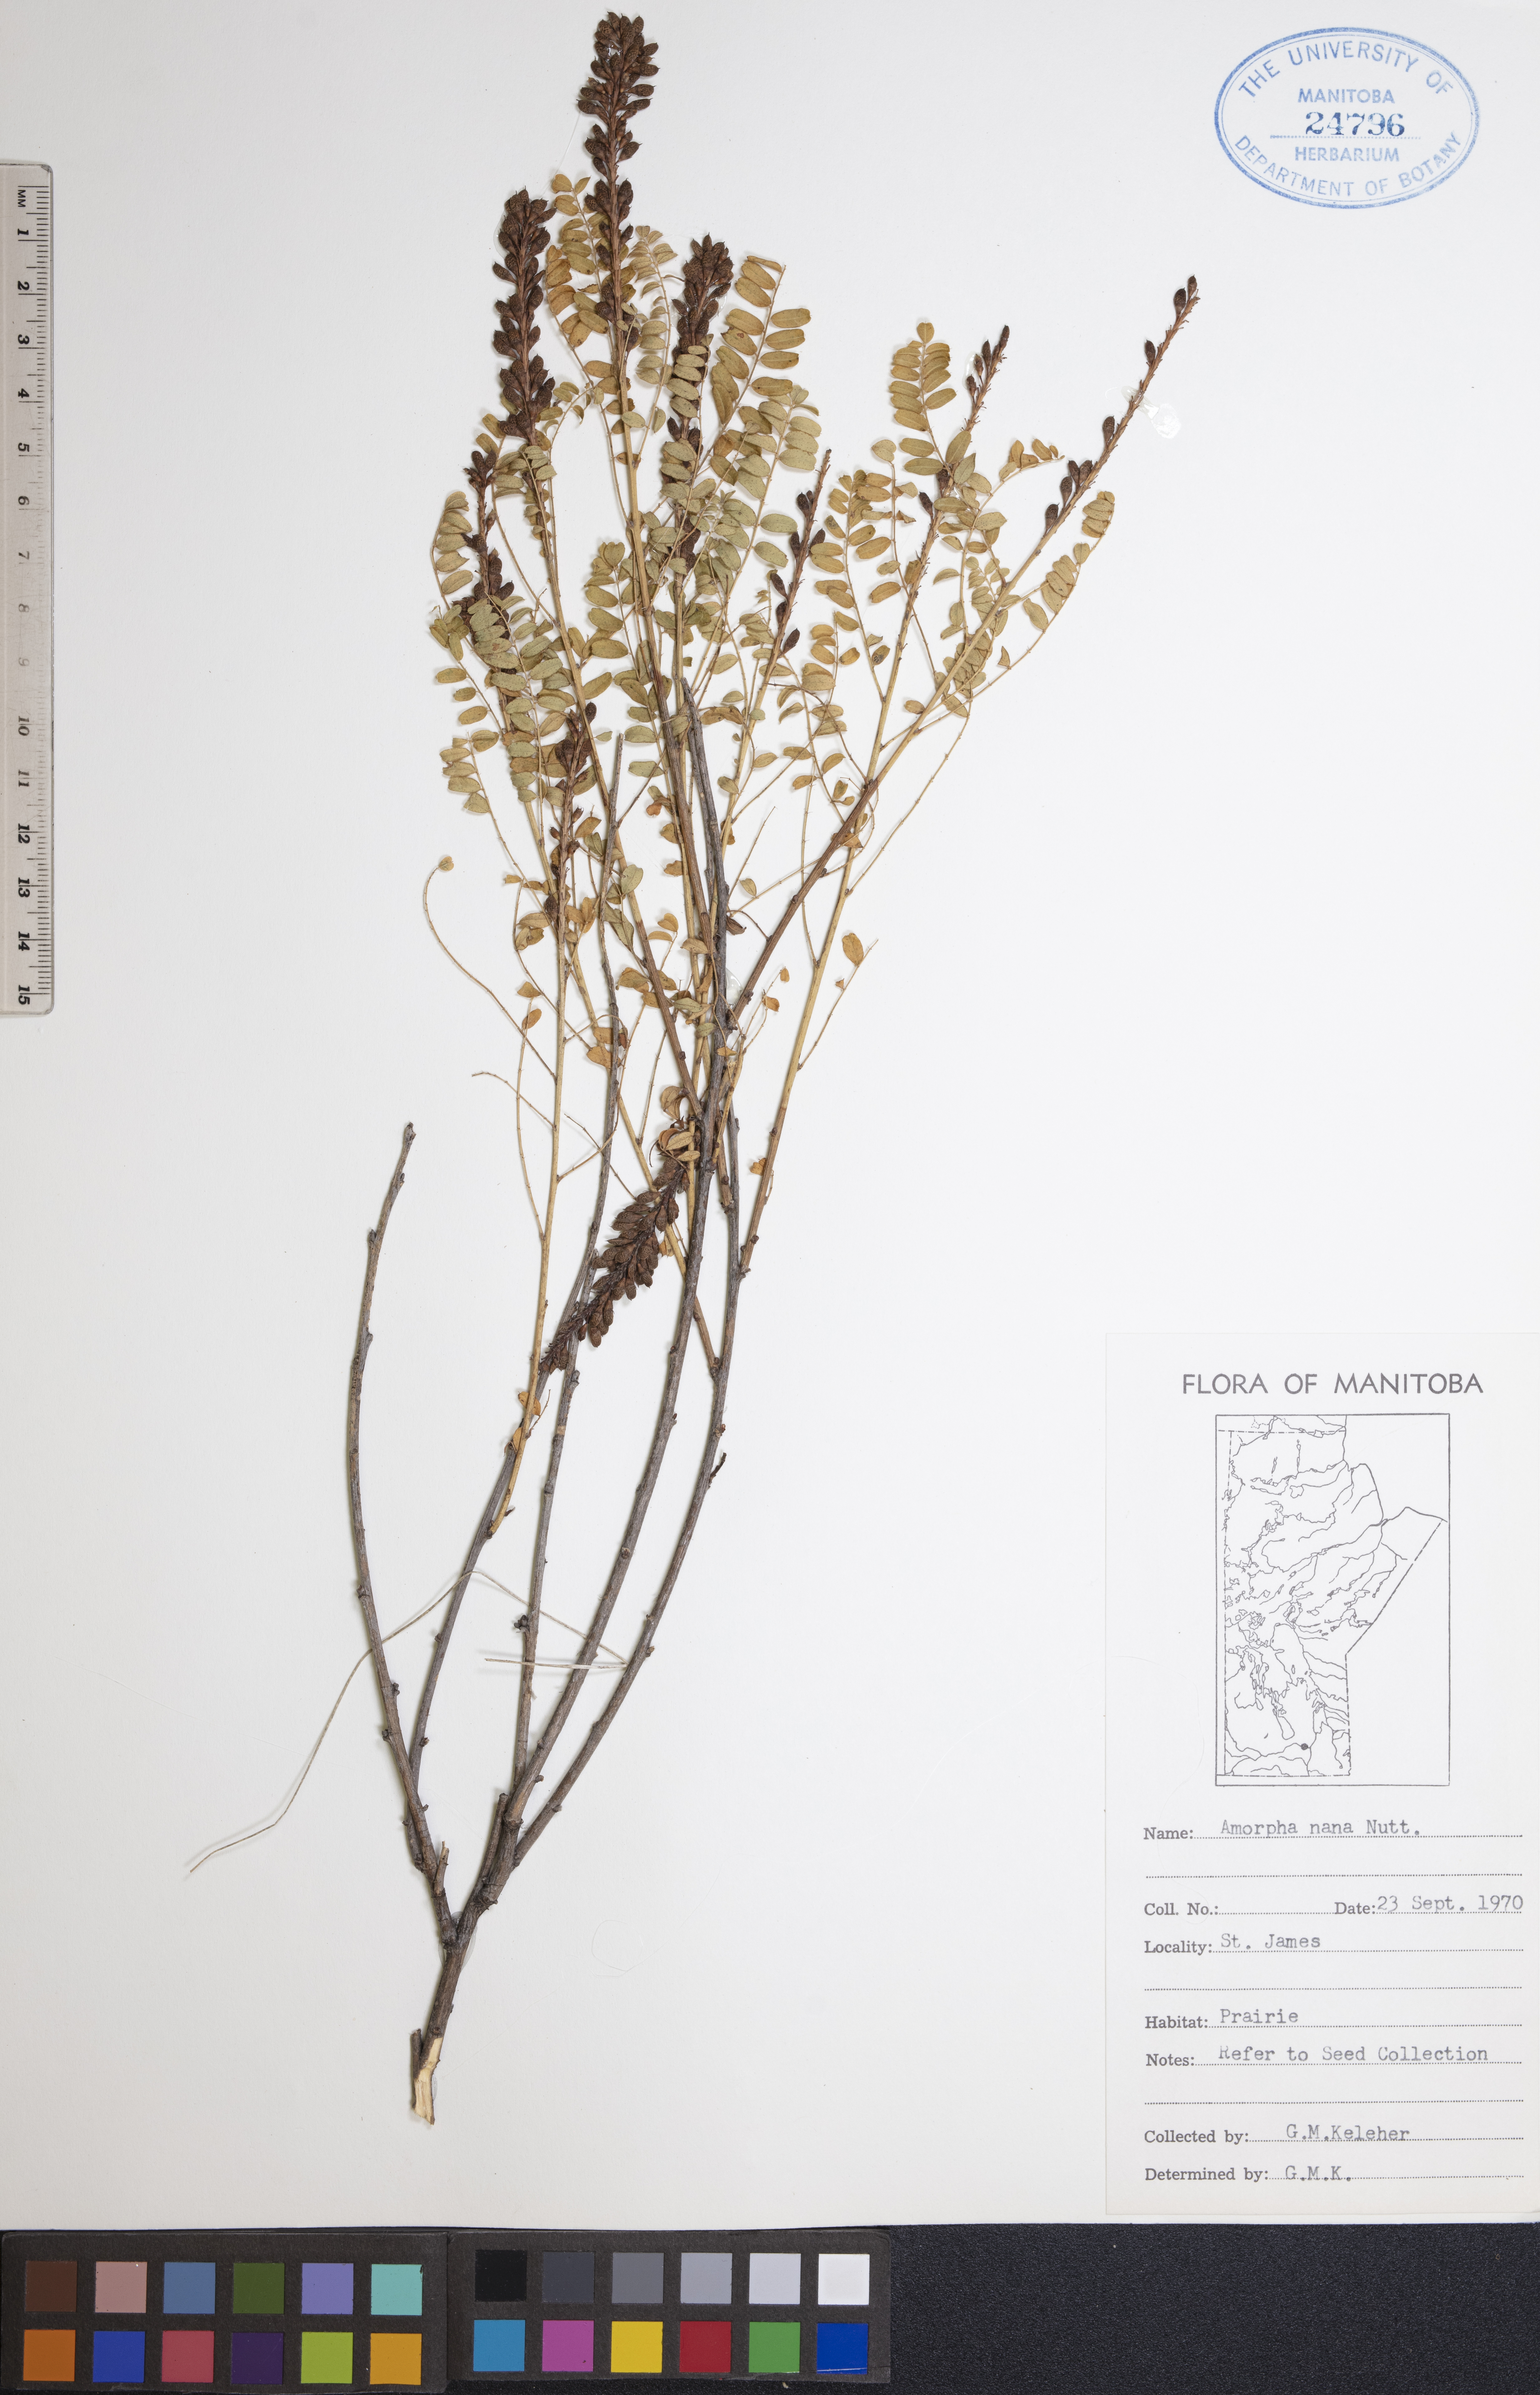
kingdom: Plantae
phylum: Tracheophyta
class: Magnoliopsida
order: Fabales
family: Fabaceae
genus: Amorpha
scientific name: Amorpha nana
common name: Fragrant false indigo
